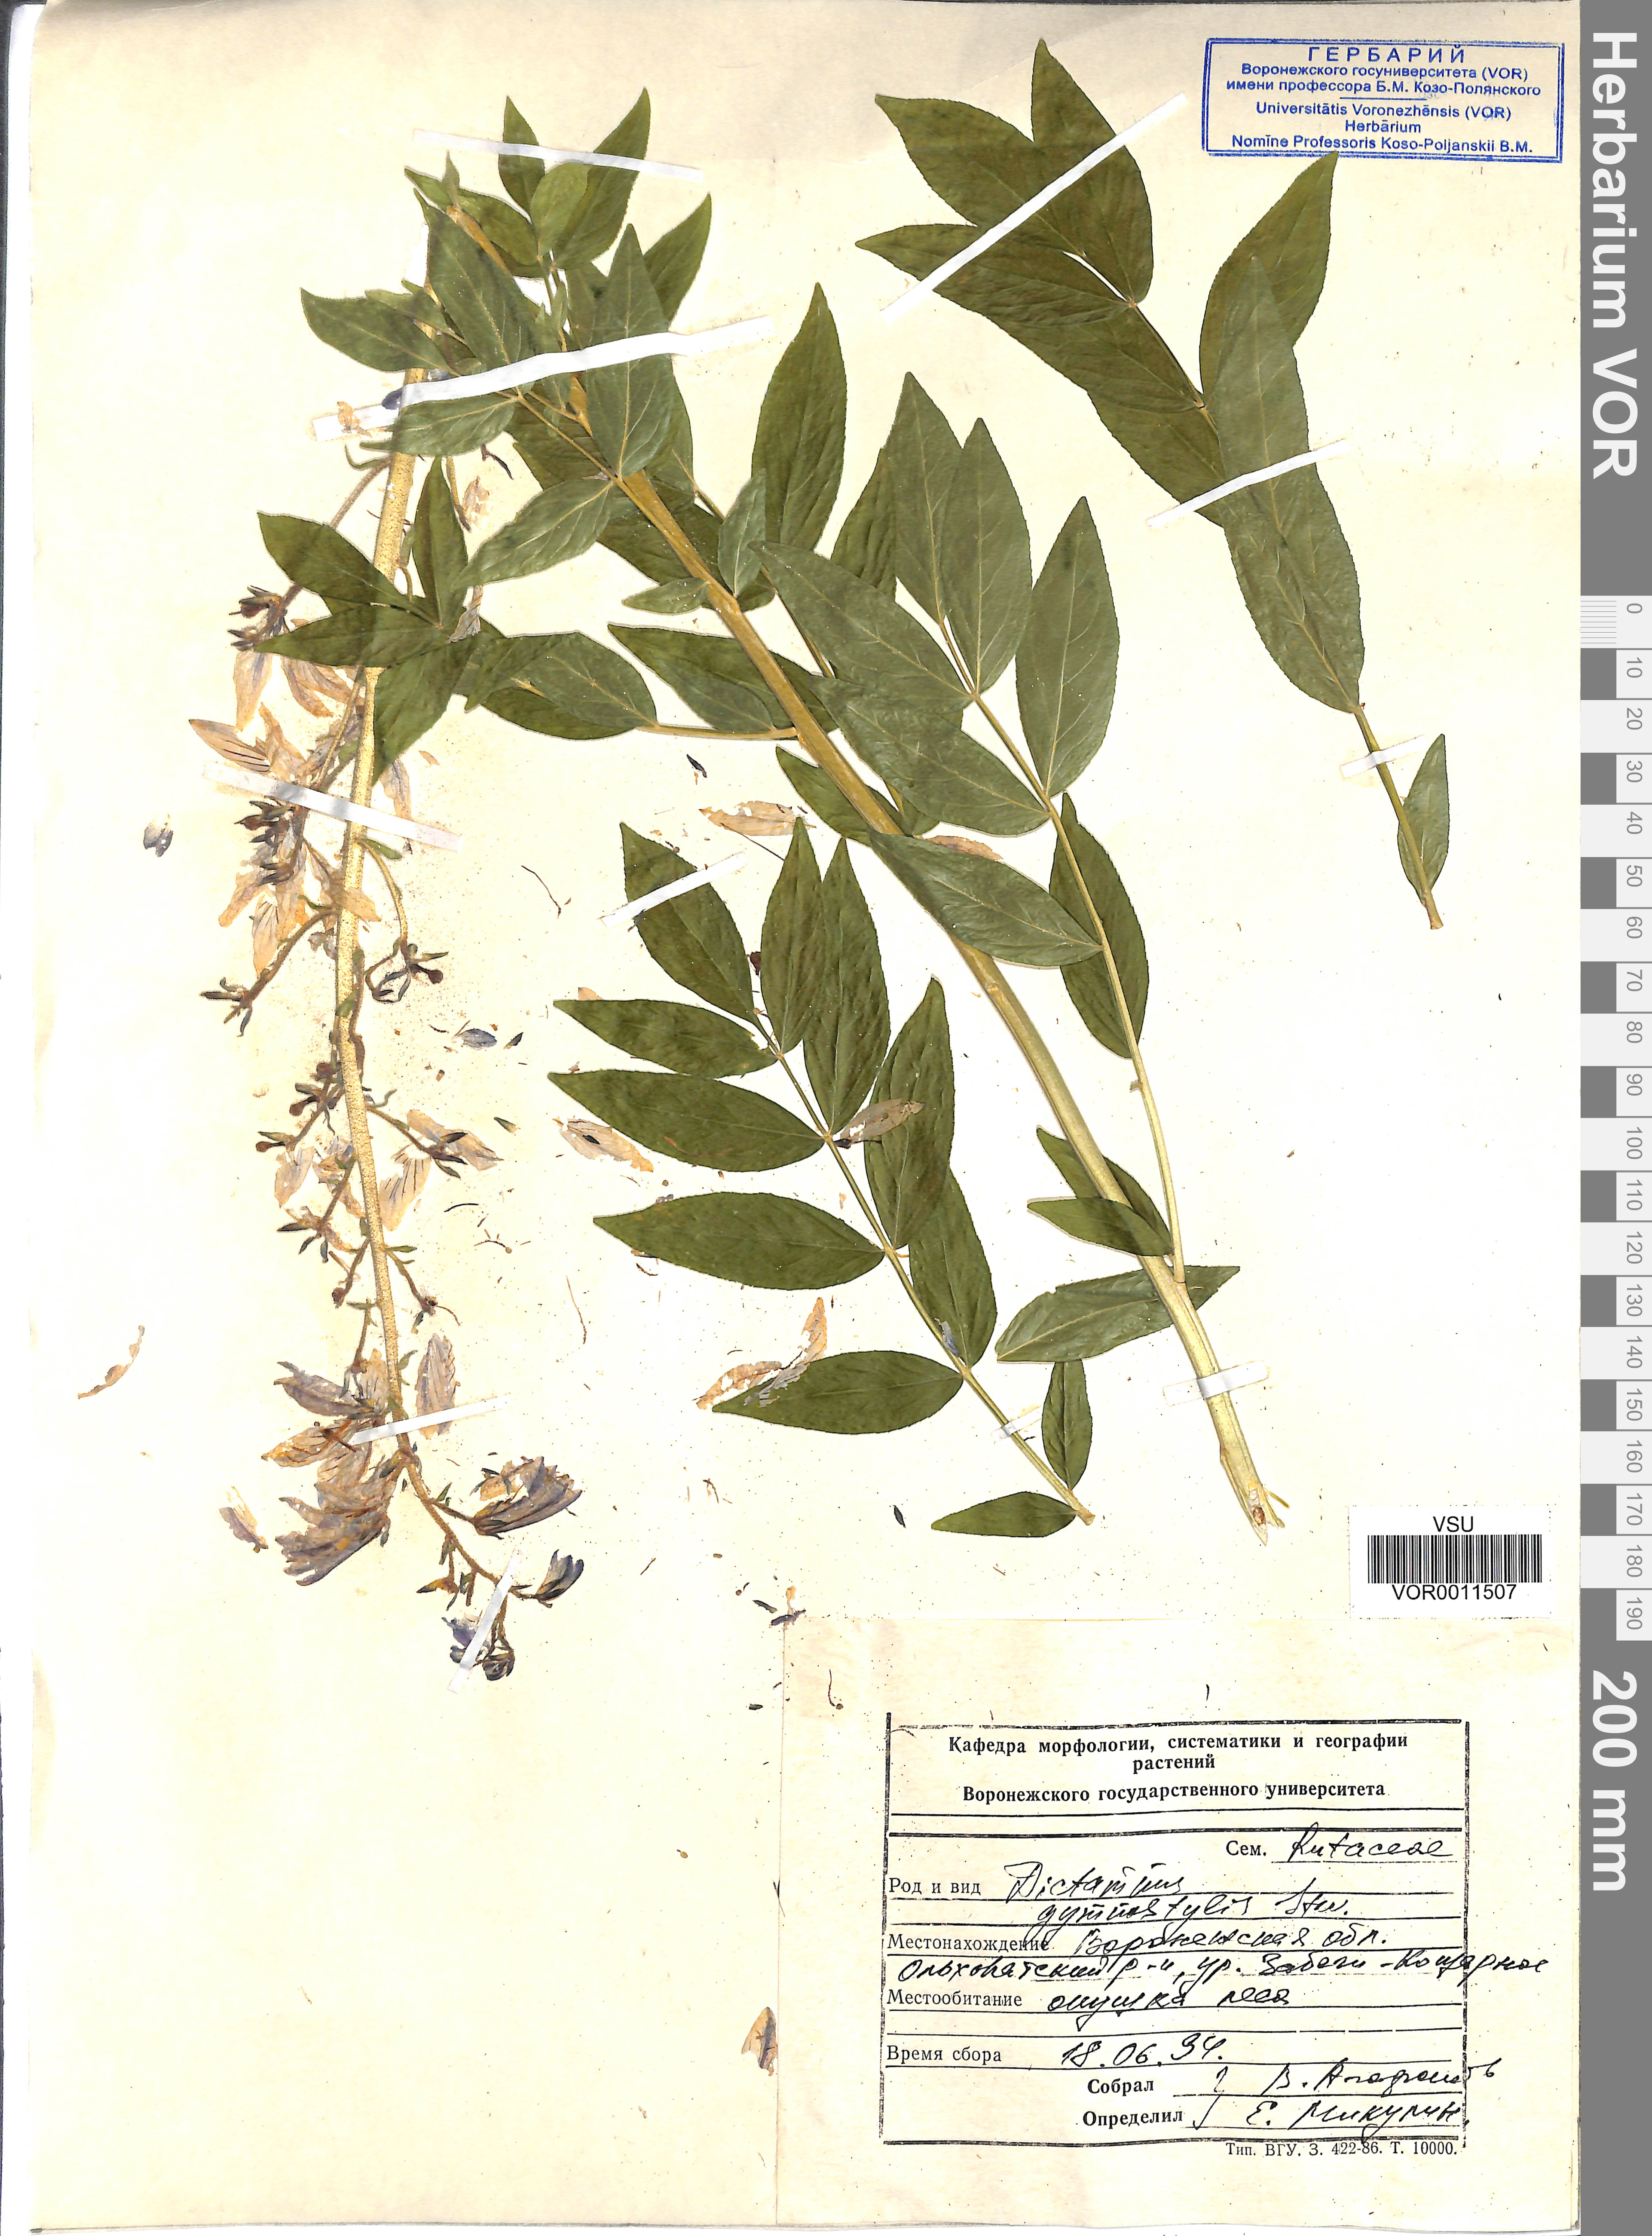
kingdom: Plantae
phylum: Tracheophyta
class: Magnoliopsida
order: Sapindales
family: Rutaceae
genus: Dictamnus
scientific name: Dictamnus albus
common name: Gasplant
